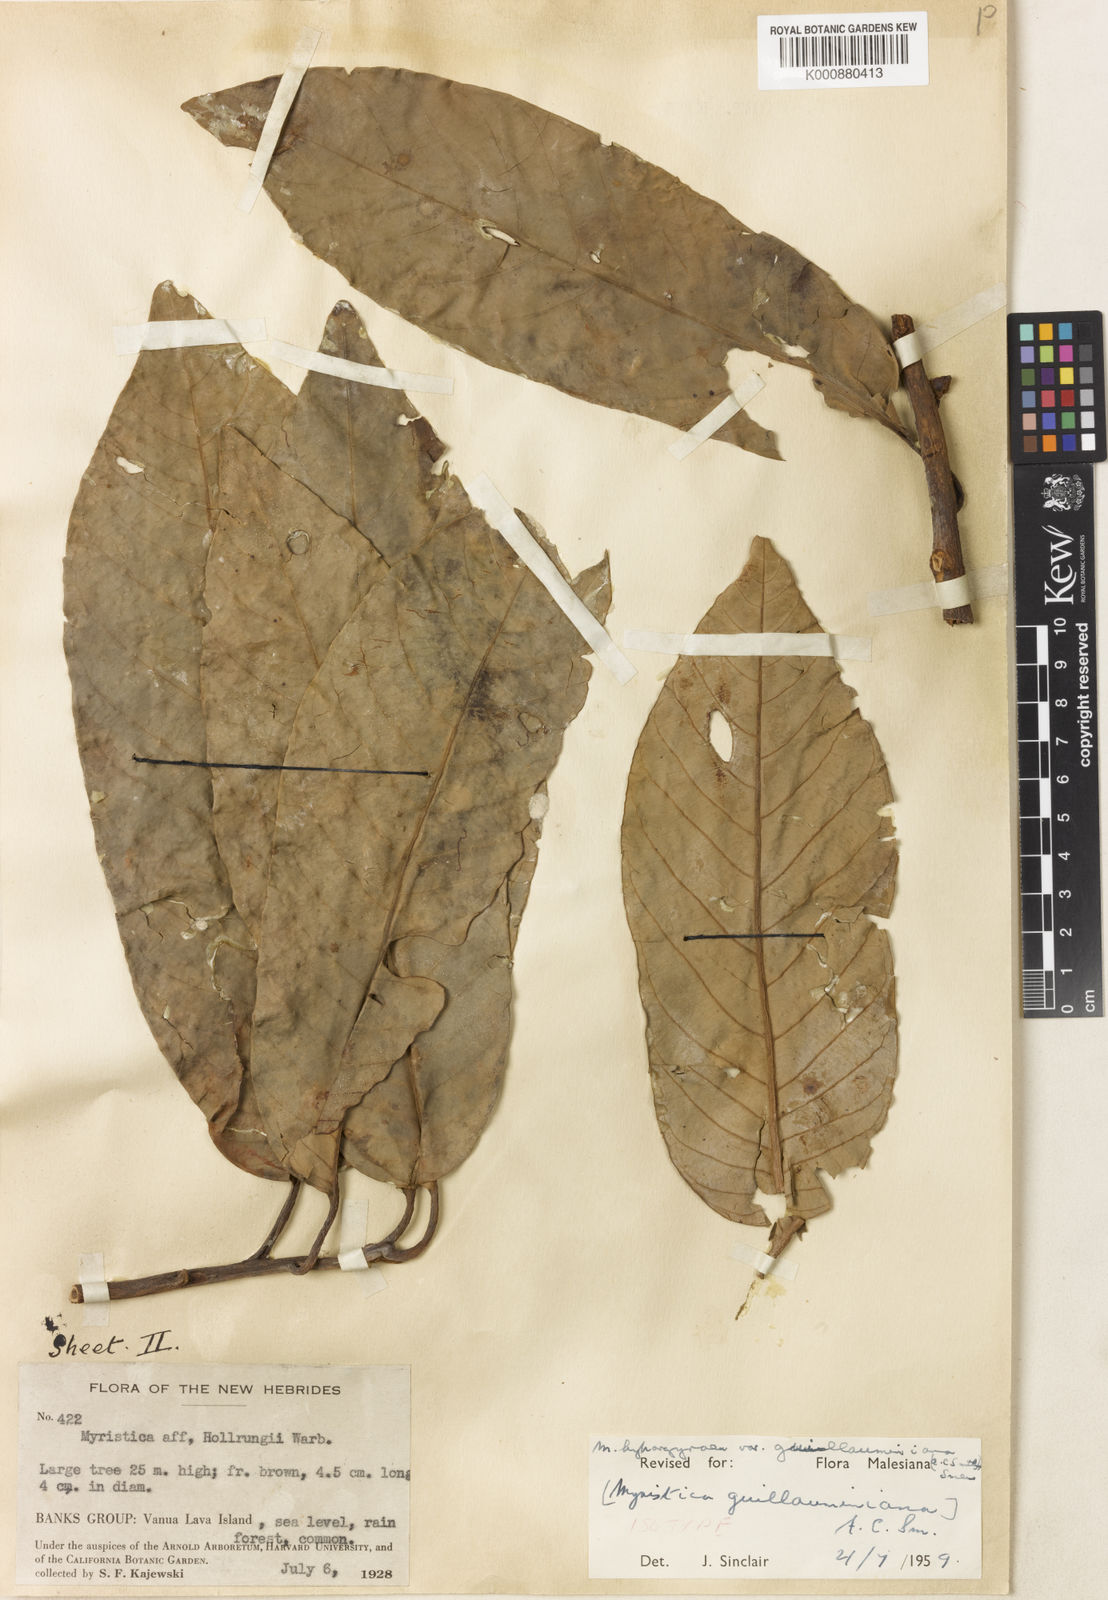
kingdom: Plantae
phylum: Tracheophyta
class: Magnoliopsida
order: Magnoliales
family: Myristicaceae
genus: Myristica
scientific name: Myristica hypargyraea
